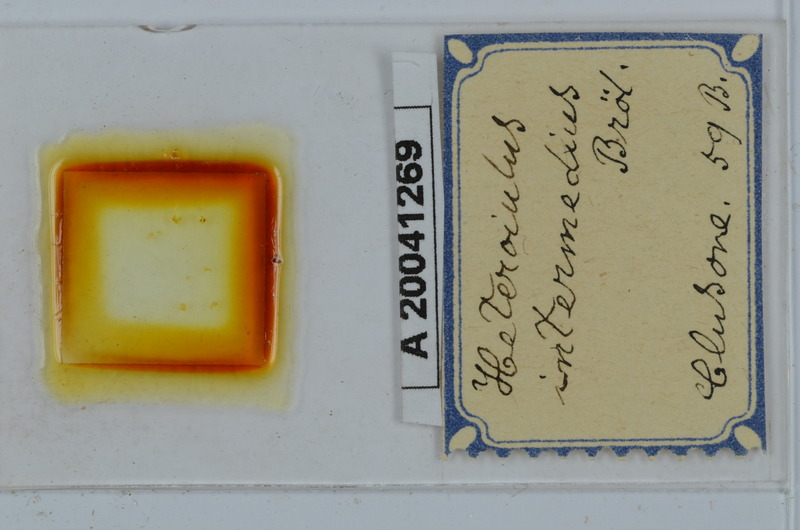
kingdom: Animalia
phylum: Arthropoda
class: Diplopoda
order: Julida
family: Julidae
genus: Heteroiulus
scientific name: Heteroiulus intermedius
